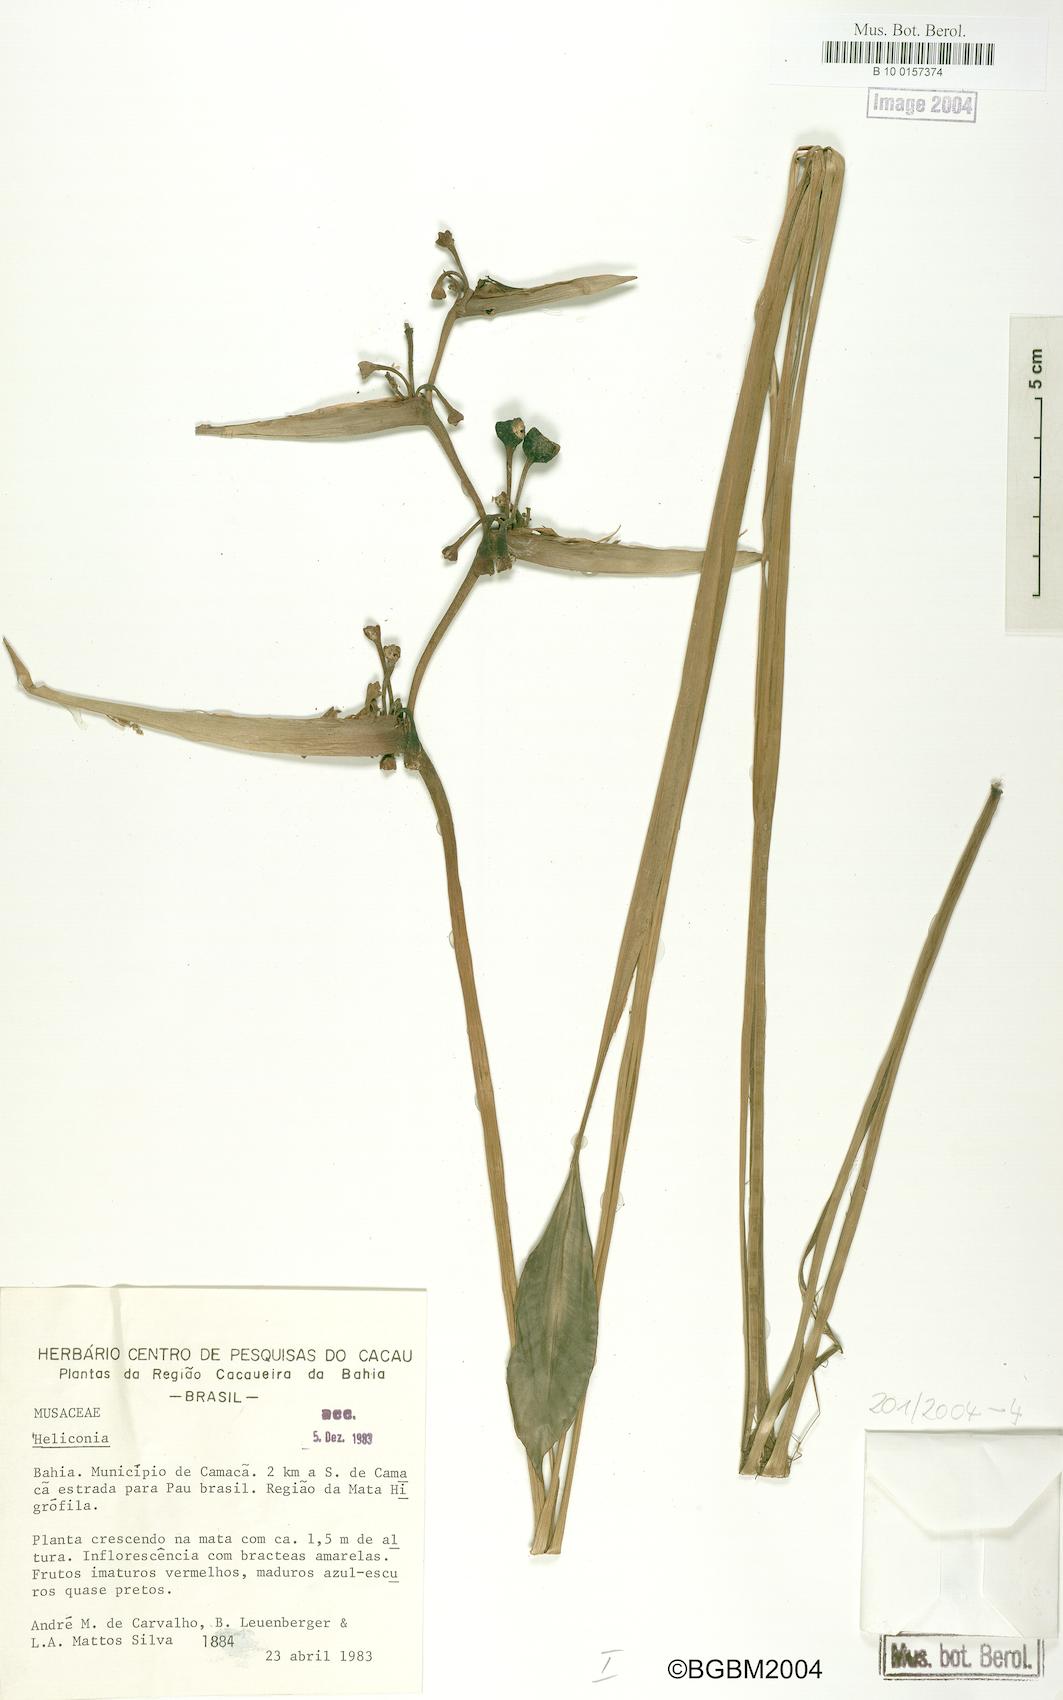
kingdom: Plantae
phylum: Tracheophyta
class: Liliopsida
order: Zingiberales
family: Heliconiaceae
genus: Heliconia
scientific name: Heliconia
